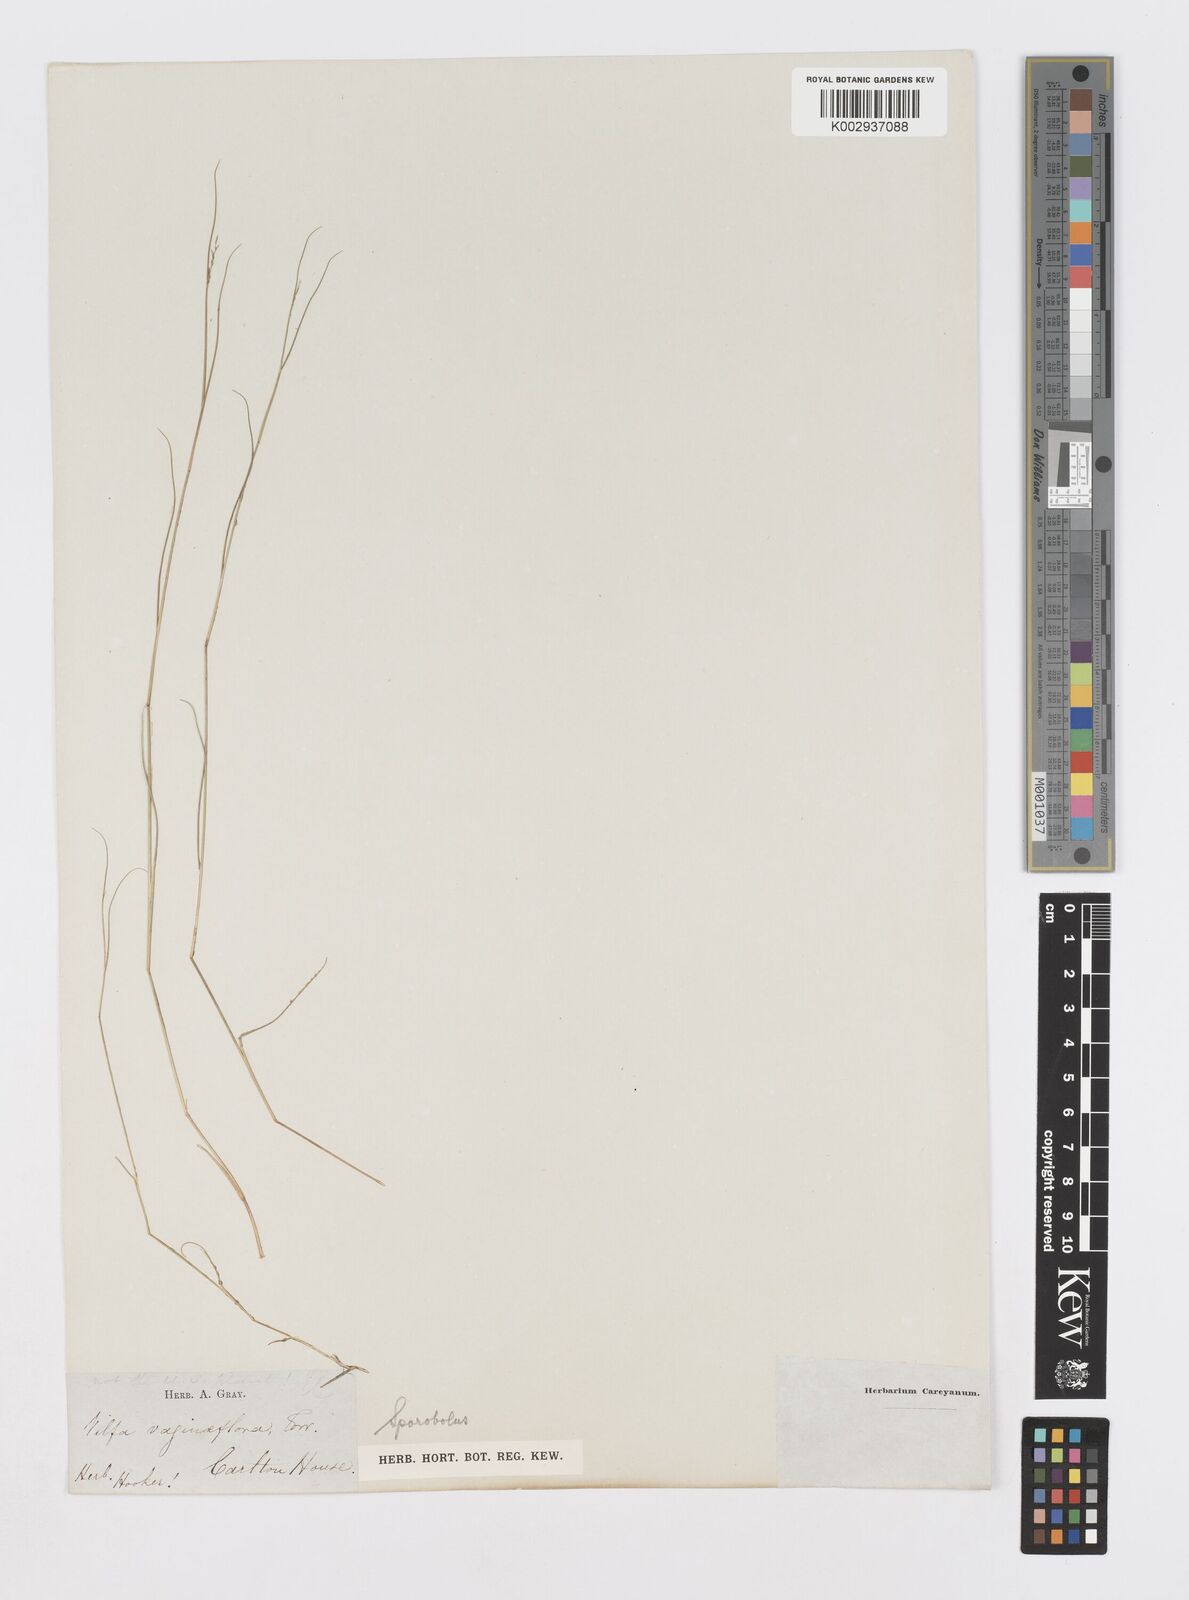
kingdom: Plantae
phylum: Tracheophyta
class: Liliopsida
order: Poales
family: Poaceae
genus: Sporobolus
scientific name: Sporobolus vaginiflorus
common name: Poverty dropseed
